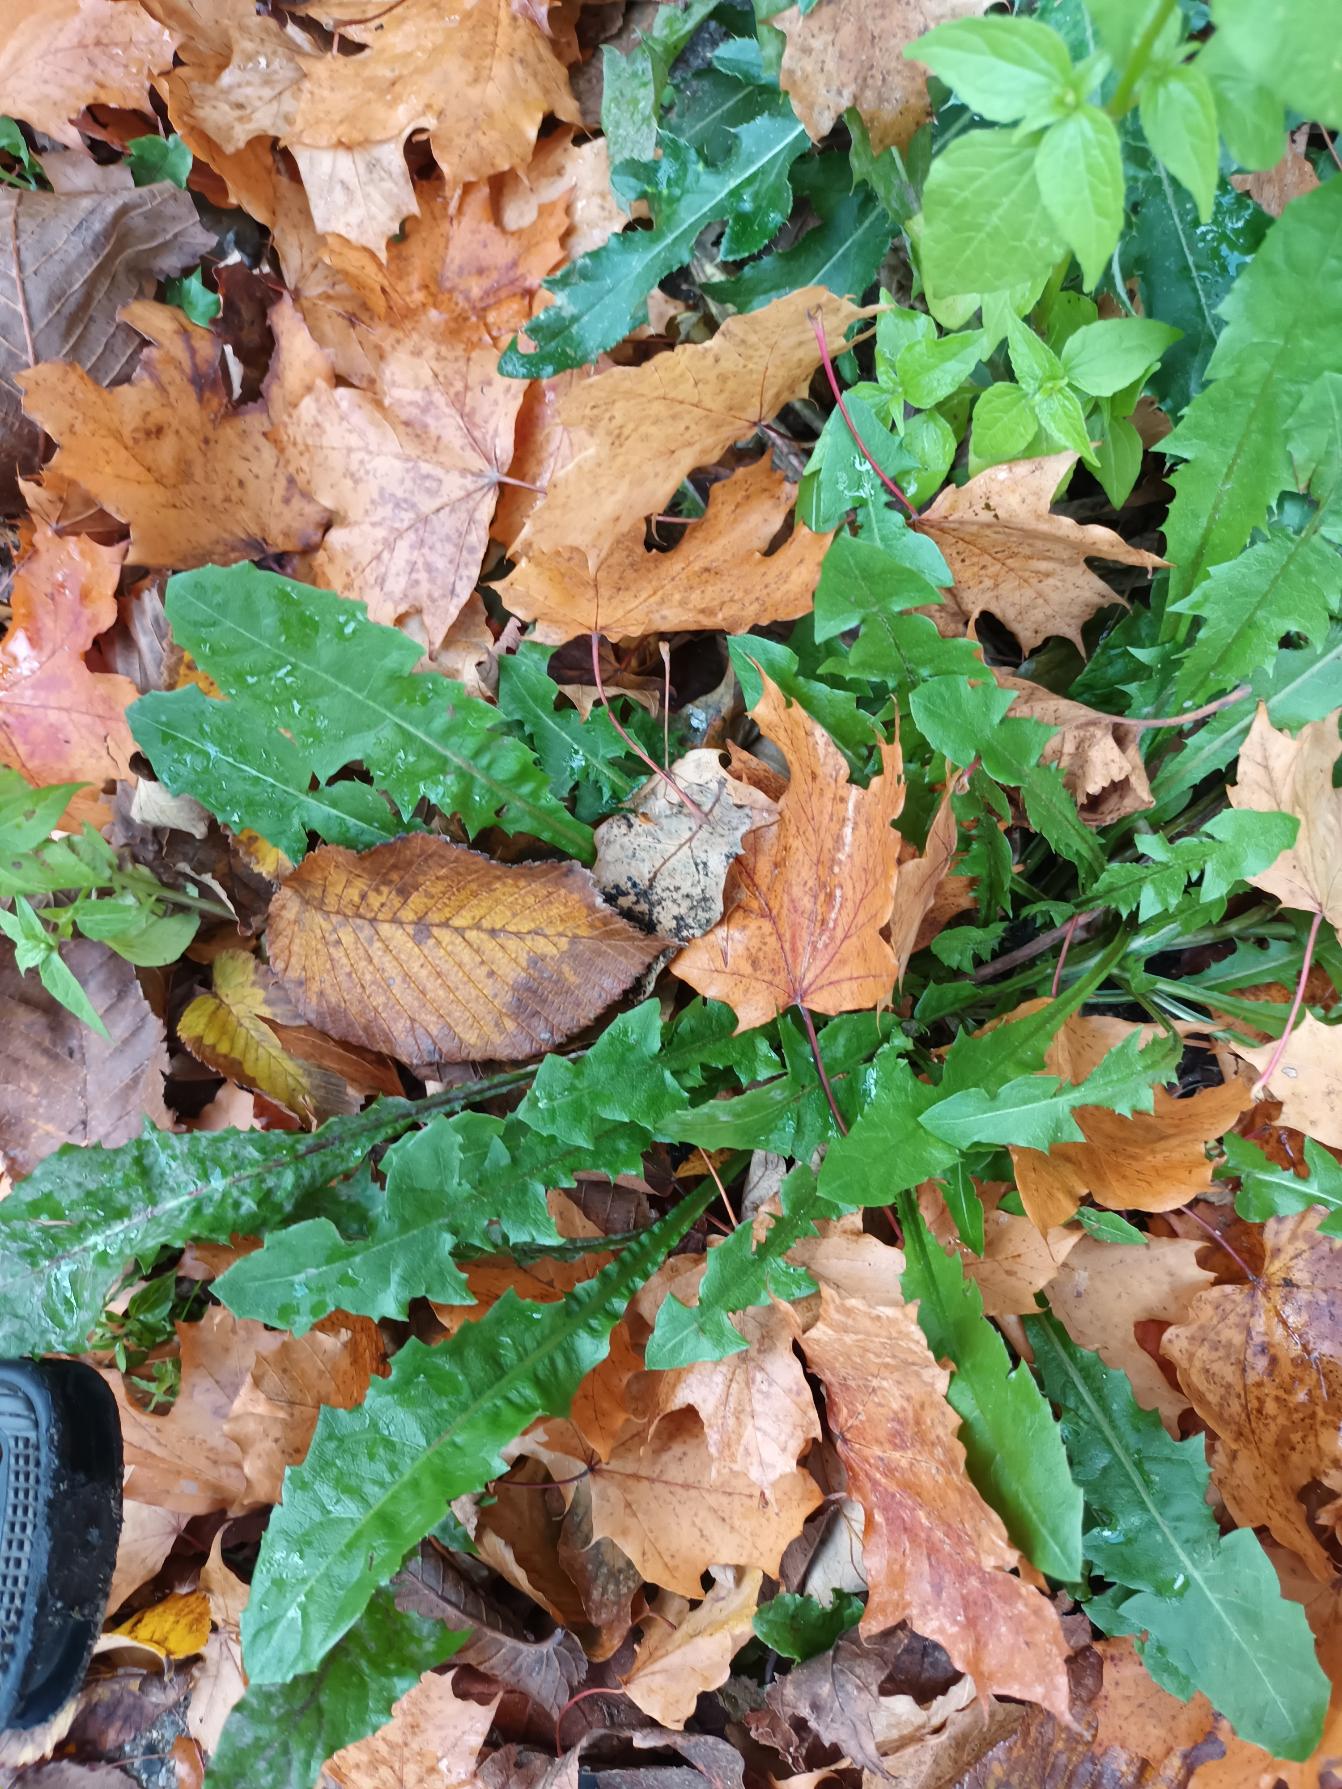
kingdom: Plantae
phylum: Tracheophyta
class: Magnoliopsida
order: Asterales
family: Asteraceae
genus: Taraxacum
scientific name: Taraxacum
